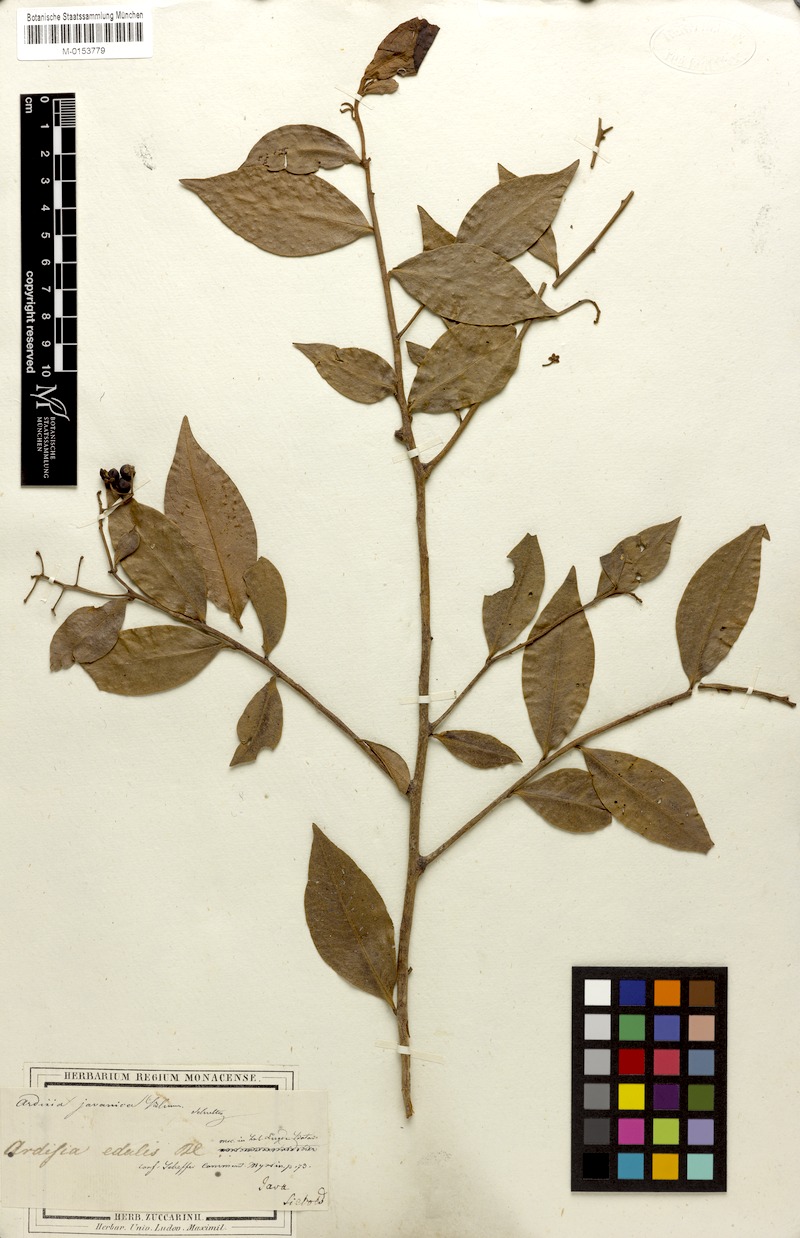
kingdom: Plantae
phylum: Tracheophyta
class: Magnoliopsida
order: Ericales
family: Primulaceae
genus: Ardisia
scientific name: Ardisia javanica
